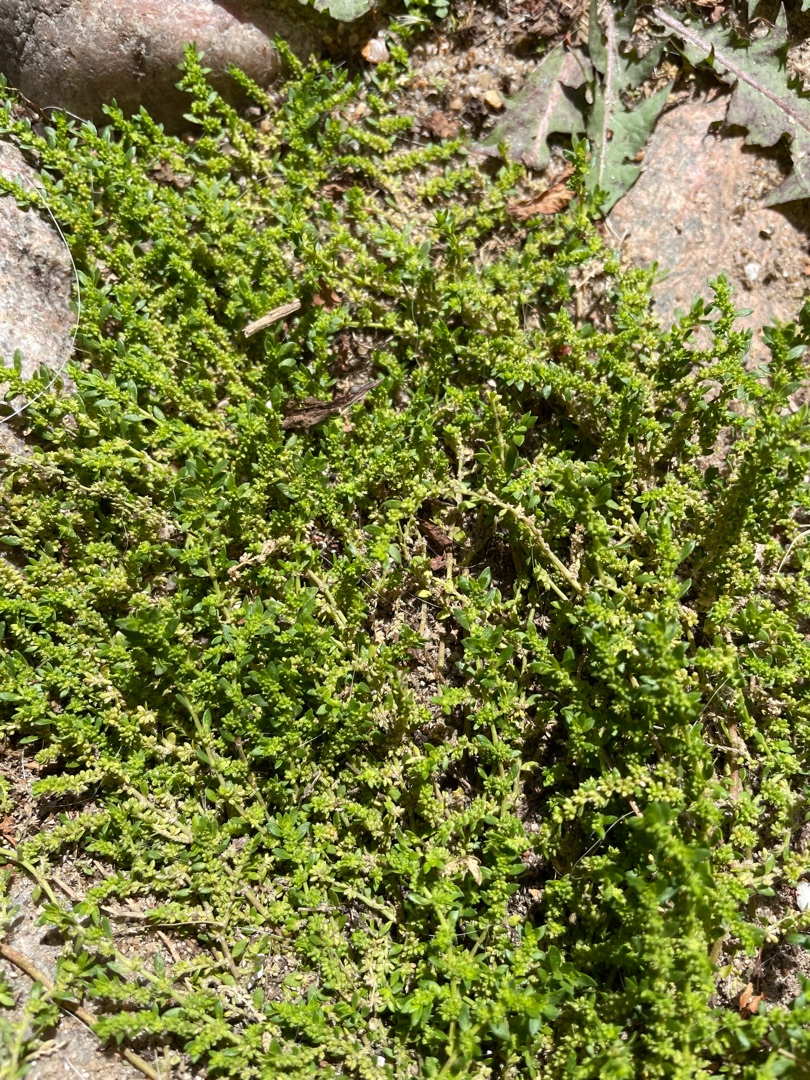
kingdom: Plantae
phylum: Tracheophyta
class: Magnoliopsida
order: Caryophyllales
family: Caryophyllaceae
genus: Herniaria
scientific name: Herniaria glabra
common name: Brudurt
